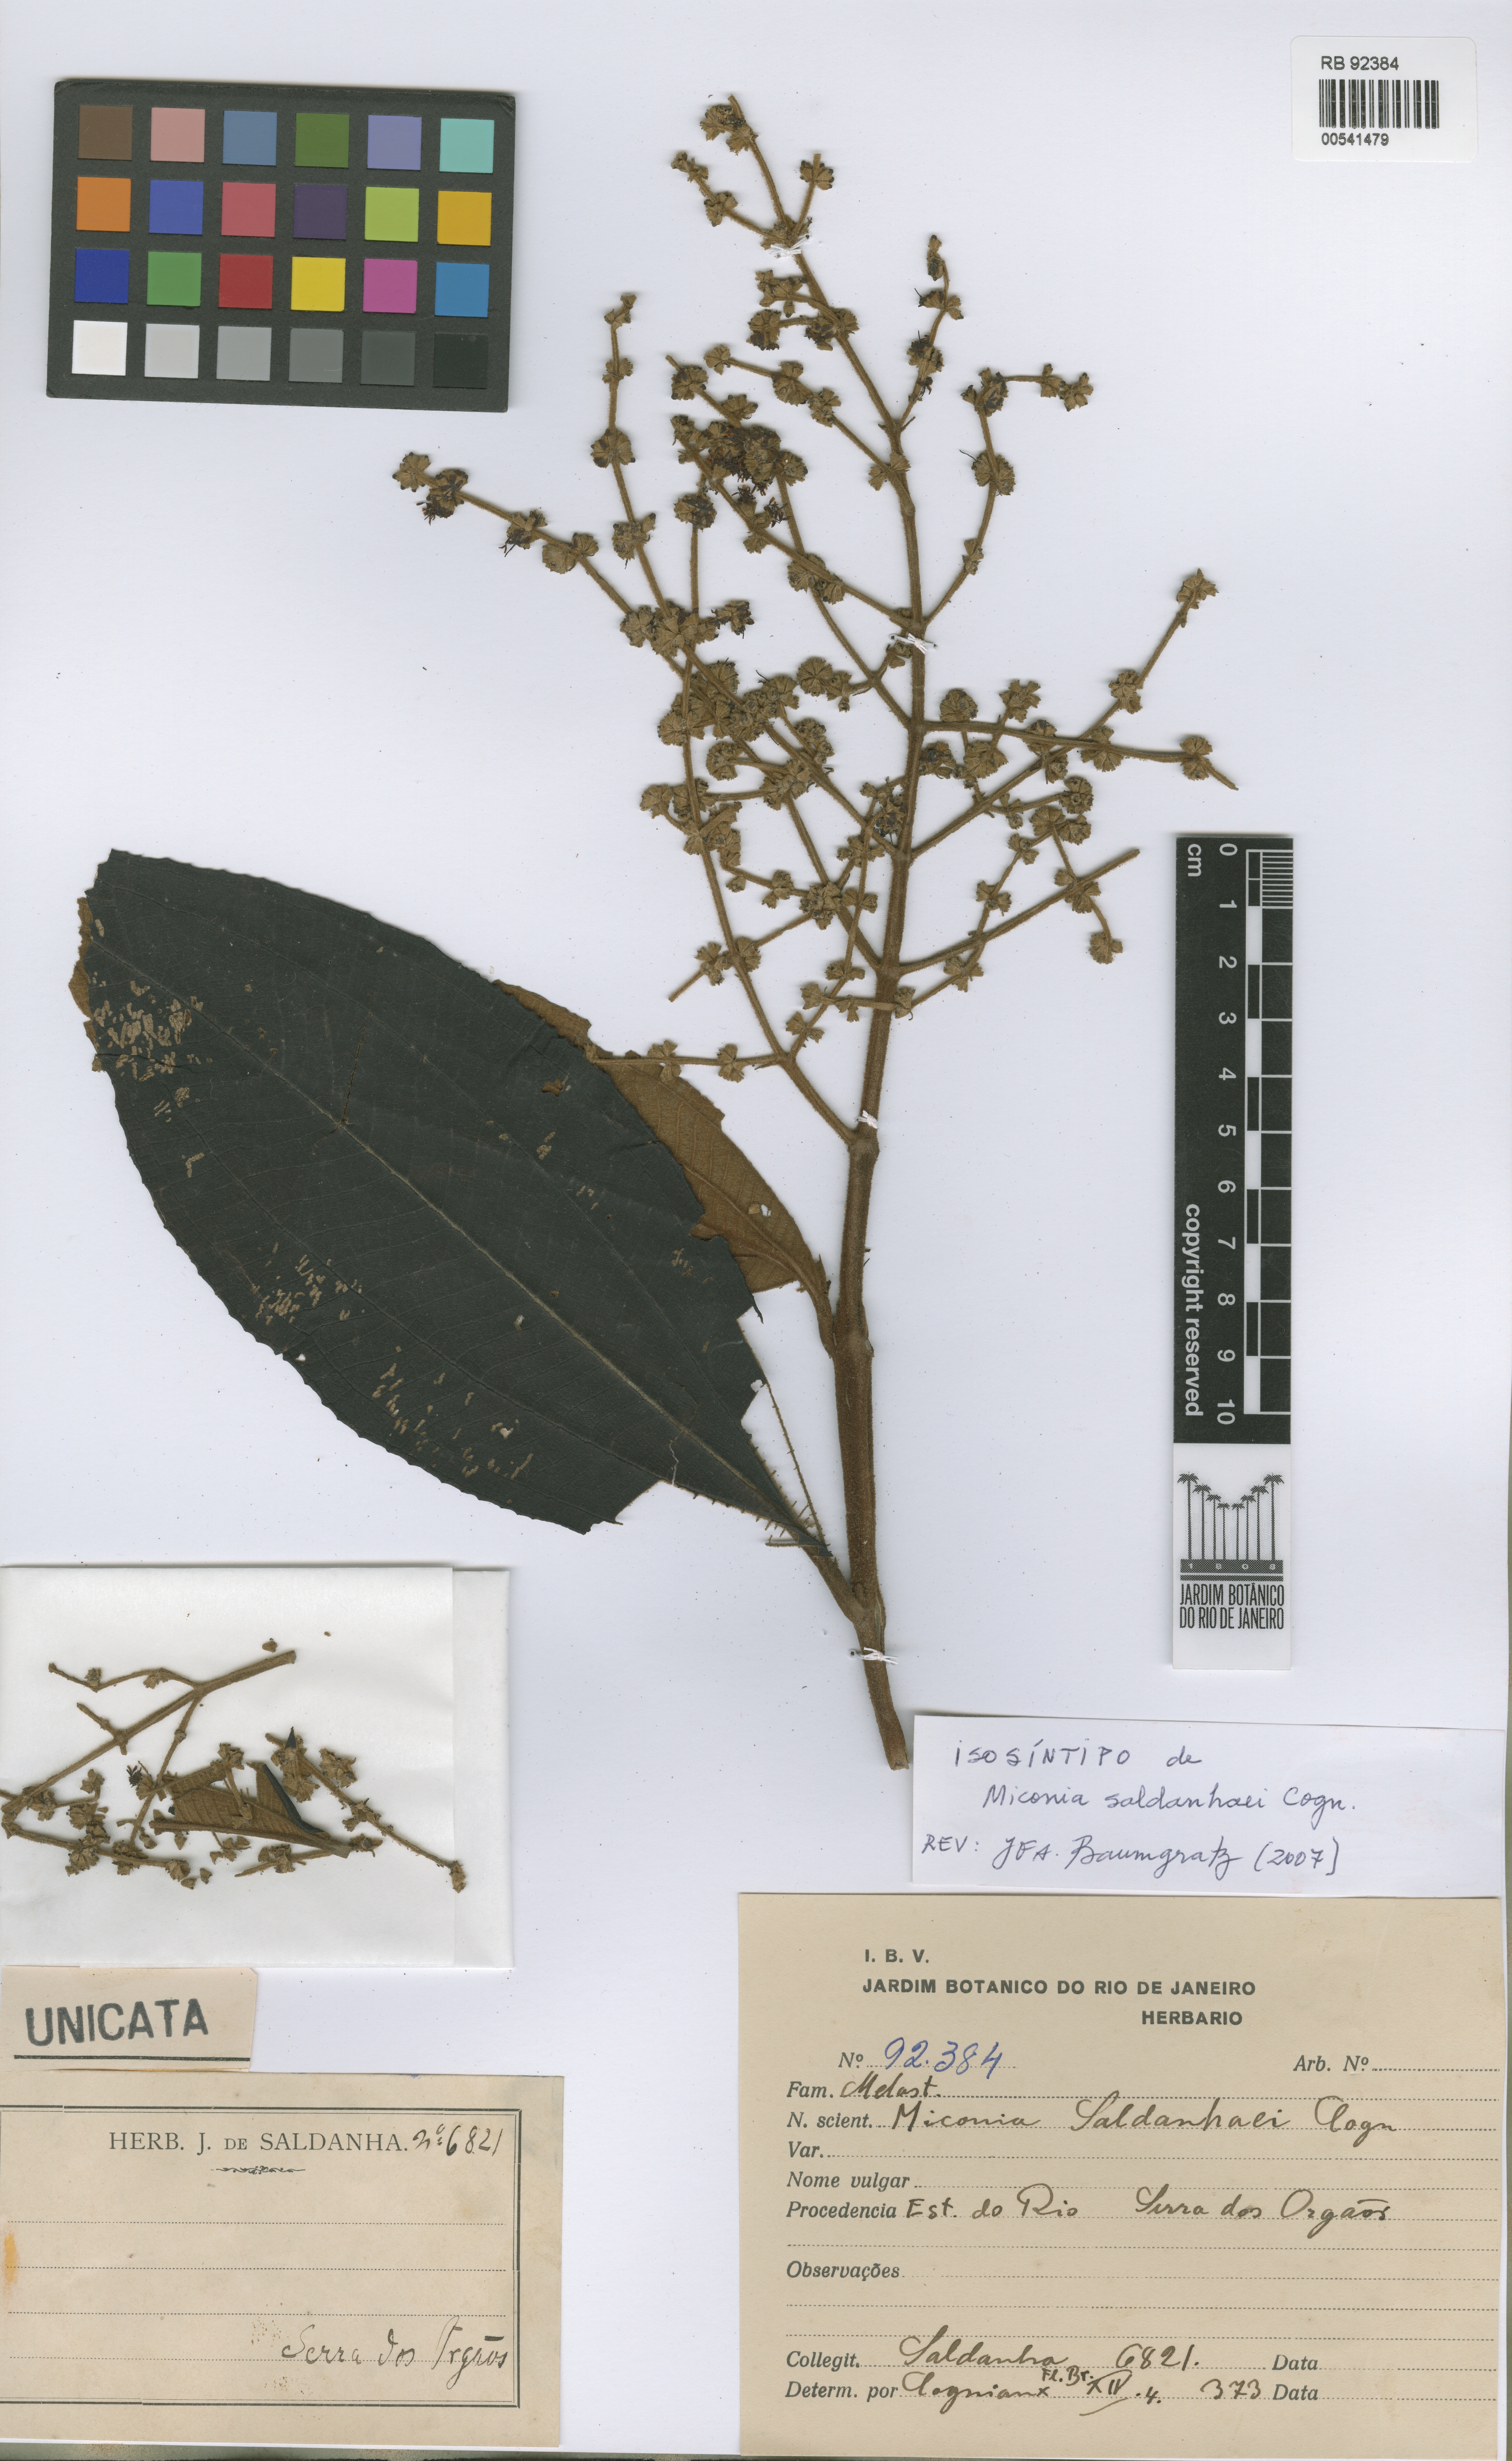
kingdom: Plantae
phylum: Tracheophyta
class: Magnoliopsida
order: Myrtales
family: Melastomataceae
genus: Miconia
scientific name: Miconia fasciculata
